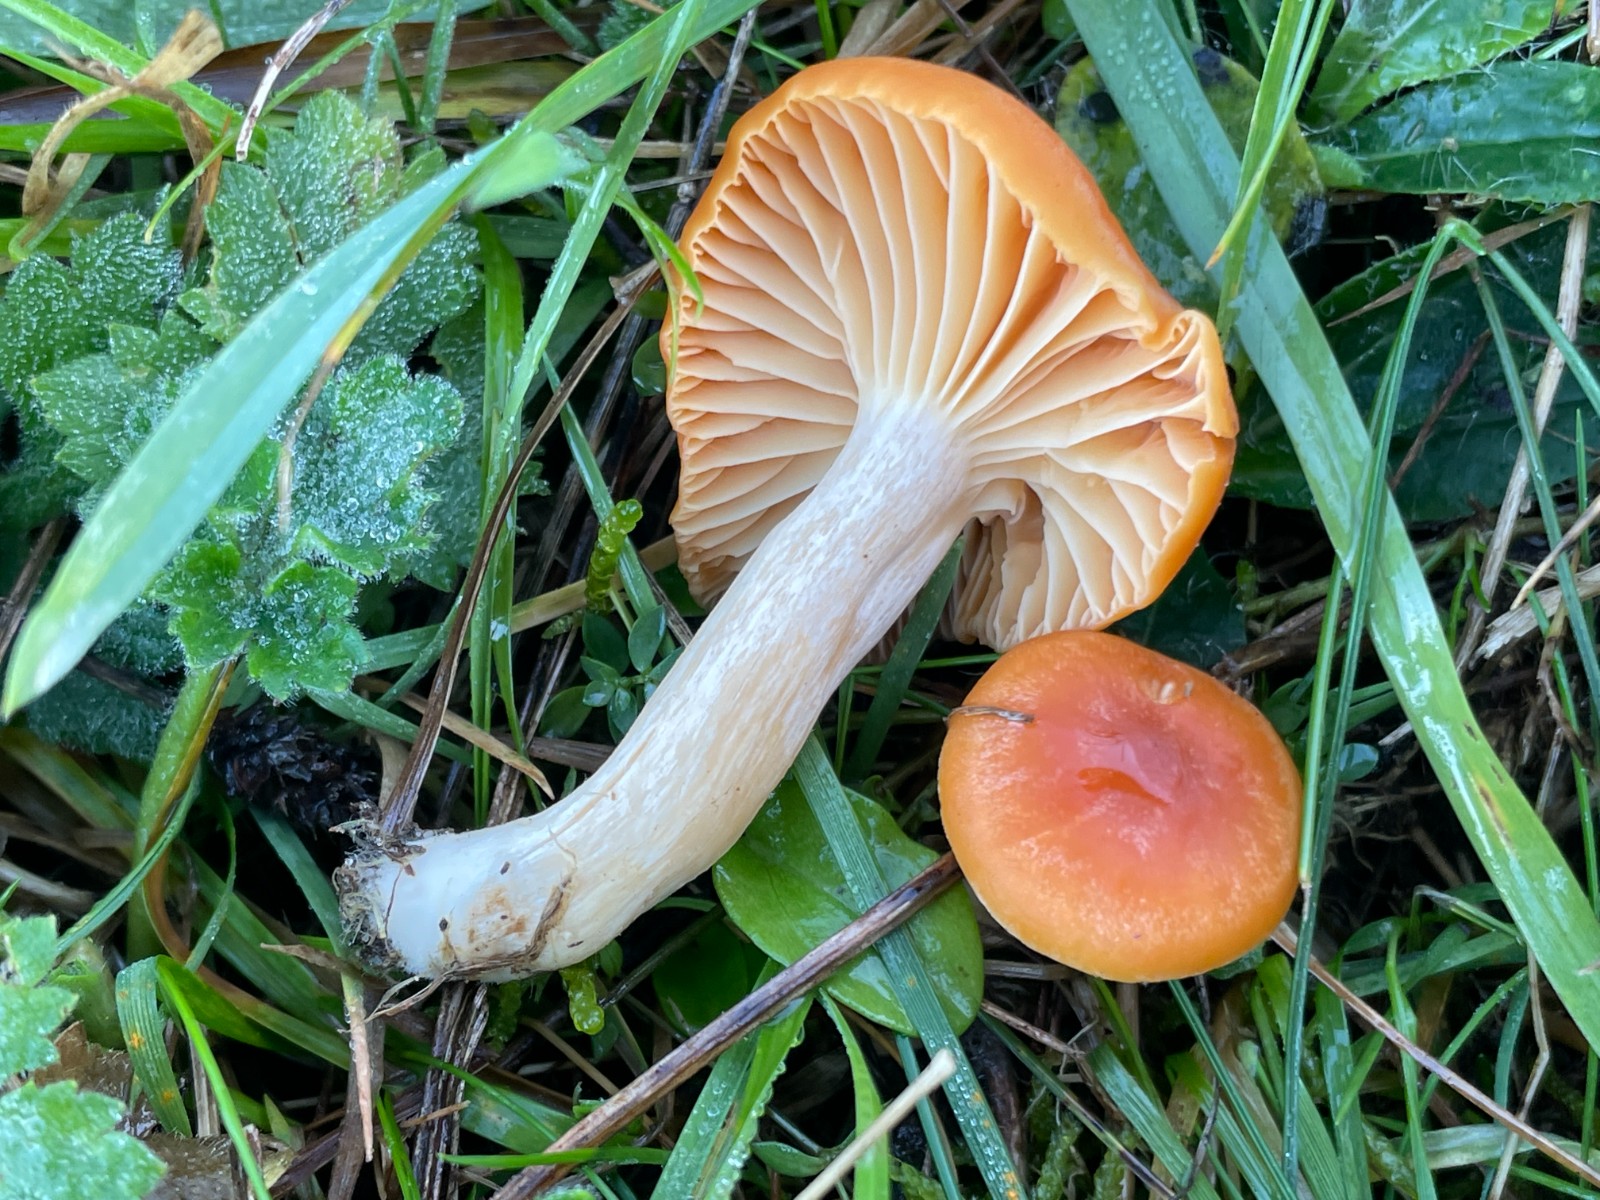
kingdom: Fungi
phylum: Basidiomycota
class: Agaricomycetes
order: Agaricales
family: Hygrophoraceae
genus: Cuphophyllus
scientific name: Cuphophyllus pratensis
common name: eng-vokshat
